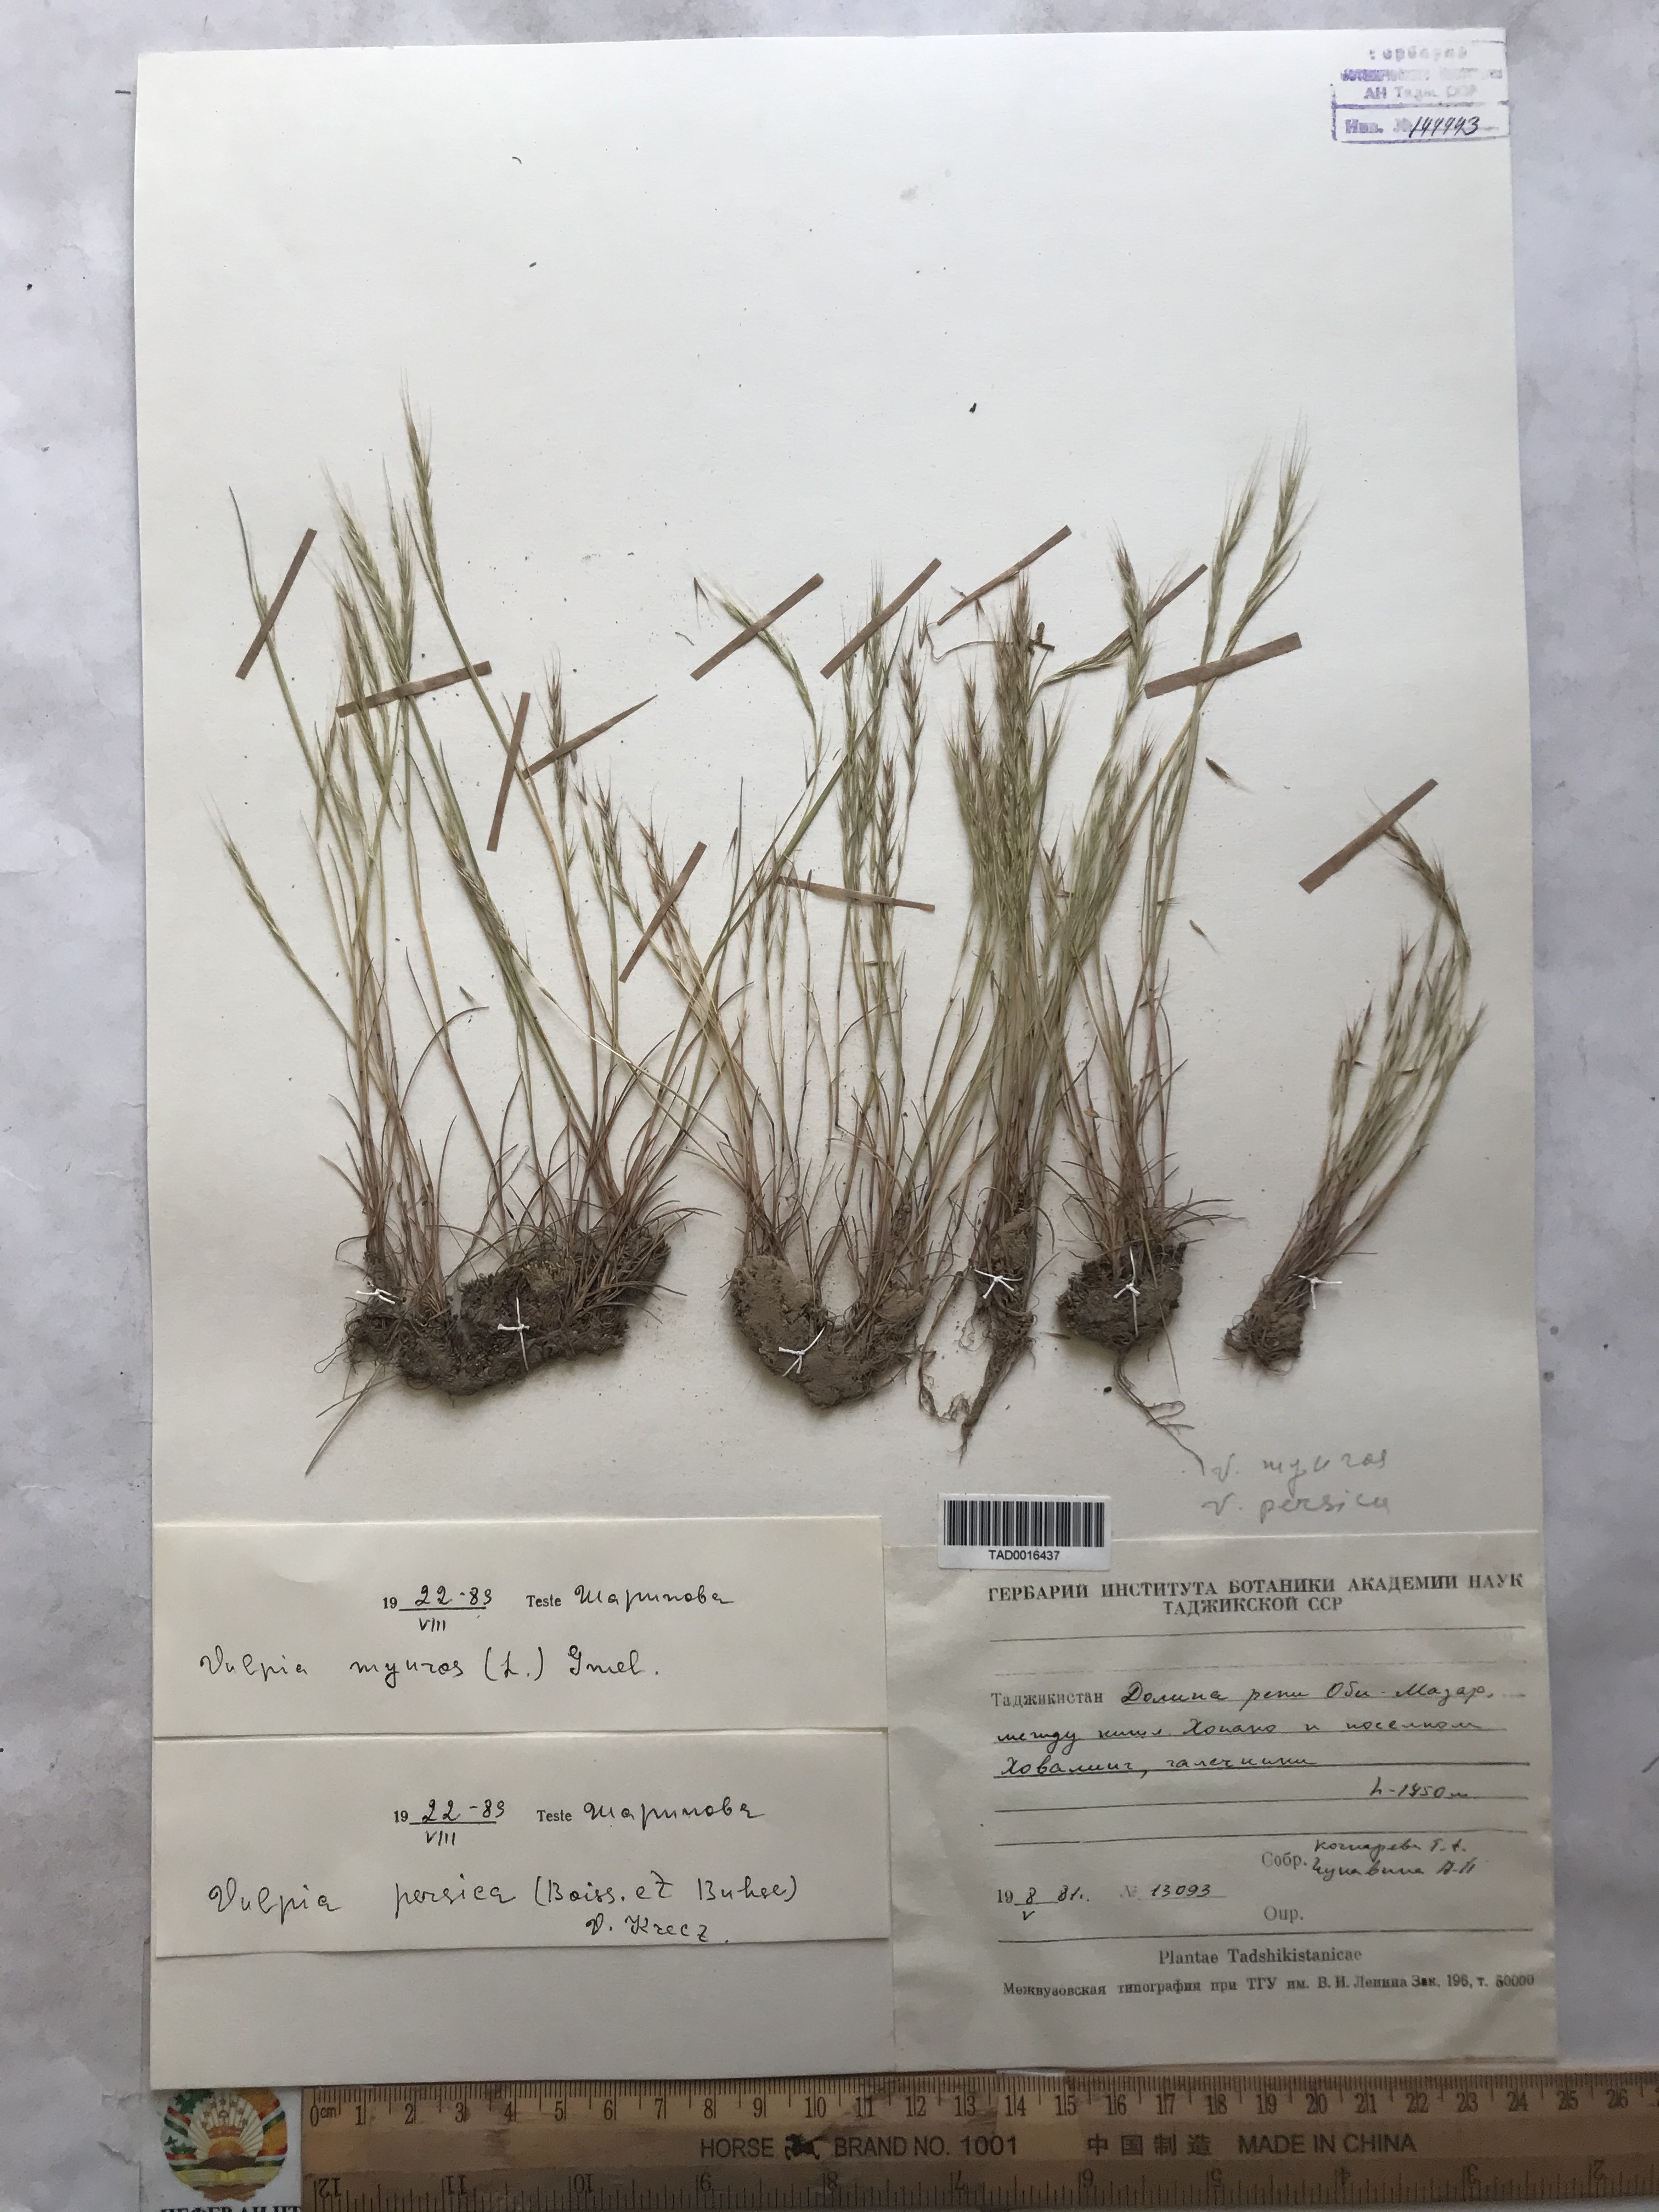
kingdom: Plantae
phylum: Tracheophyta
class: Liliopsida
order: Poales
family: Poaceae
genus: Festuca
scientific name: Festuca Vulpia persica
